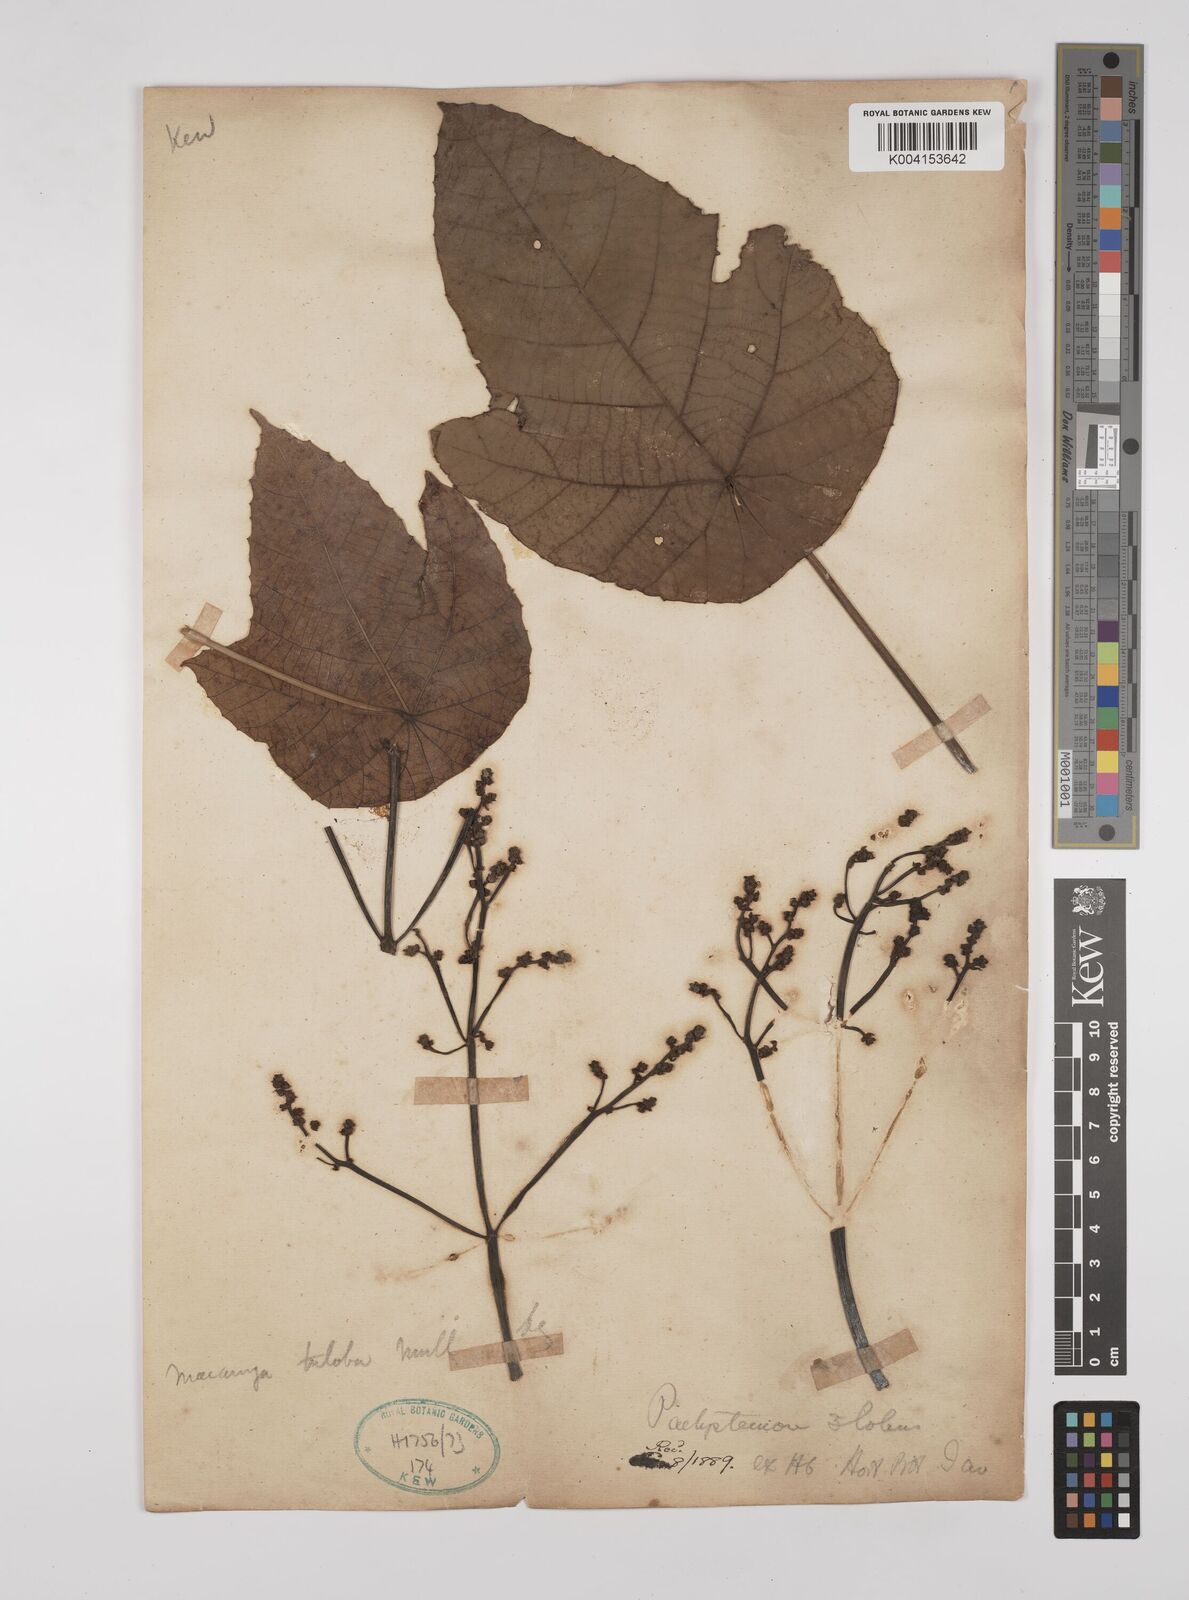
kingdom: Plantae
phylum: Tracheophyta
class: Magnoliopsida
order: Malpighiales
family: Euphorbiaceae
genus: Macaranga
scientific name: Macaranga triloba
